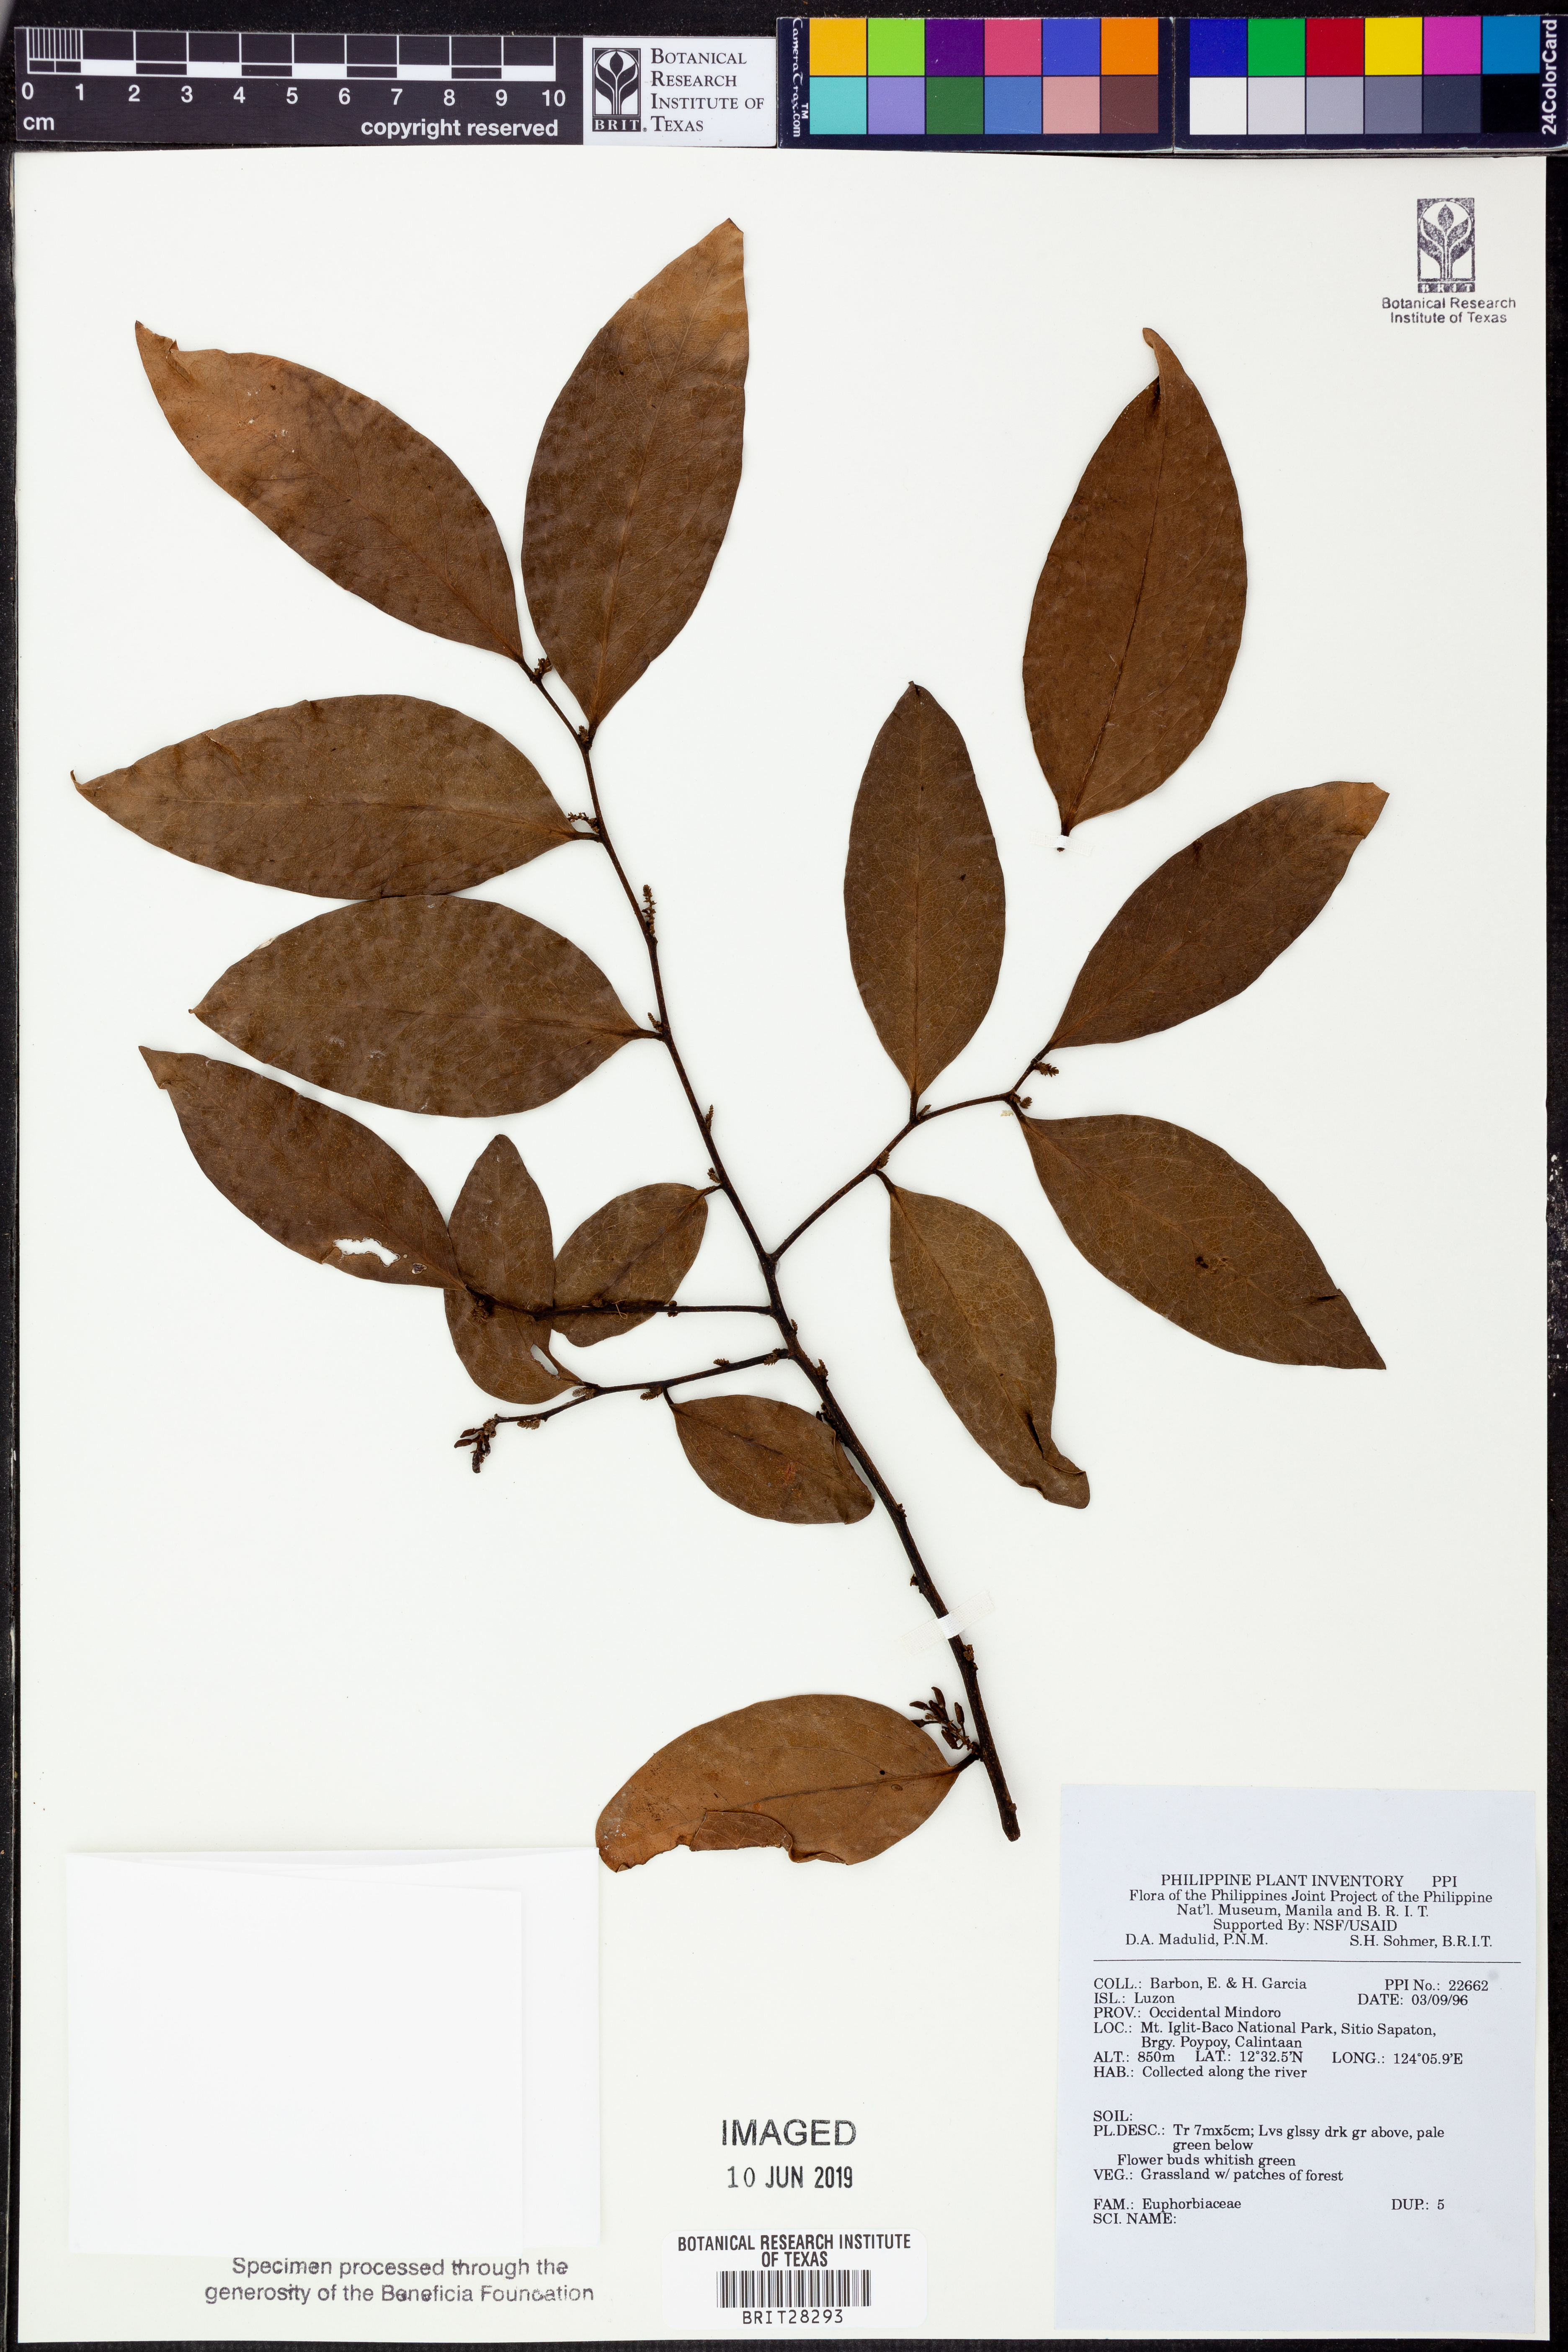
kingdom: Plantae
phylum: Tracheophyta
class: Magnoliopsida
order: Malpighiales
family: Euphorbiaceae
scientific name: Euphorbiaceae
